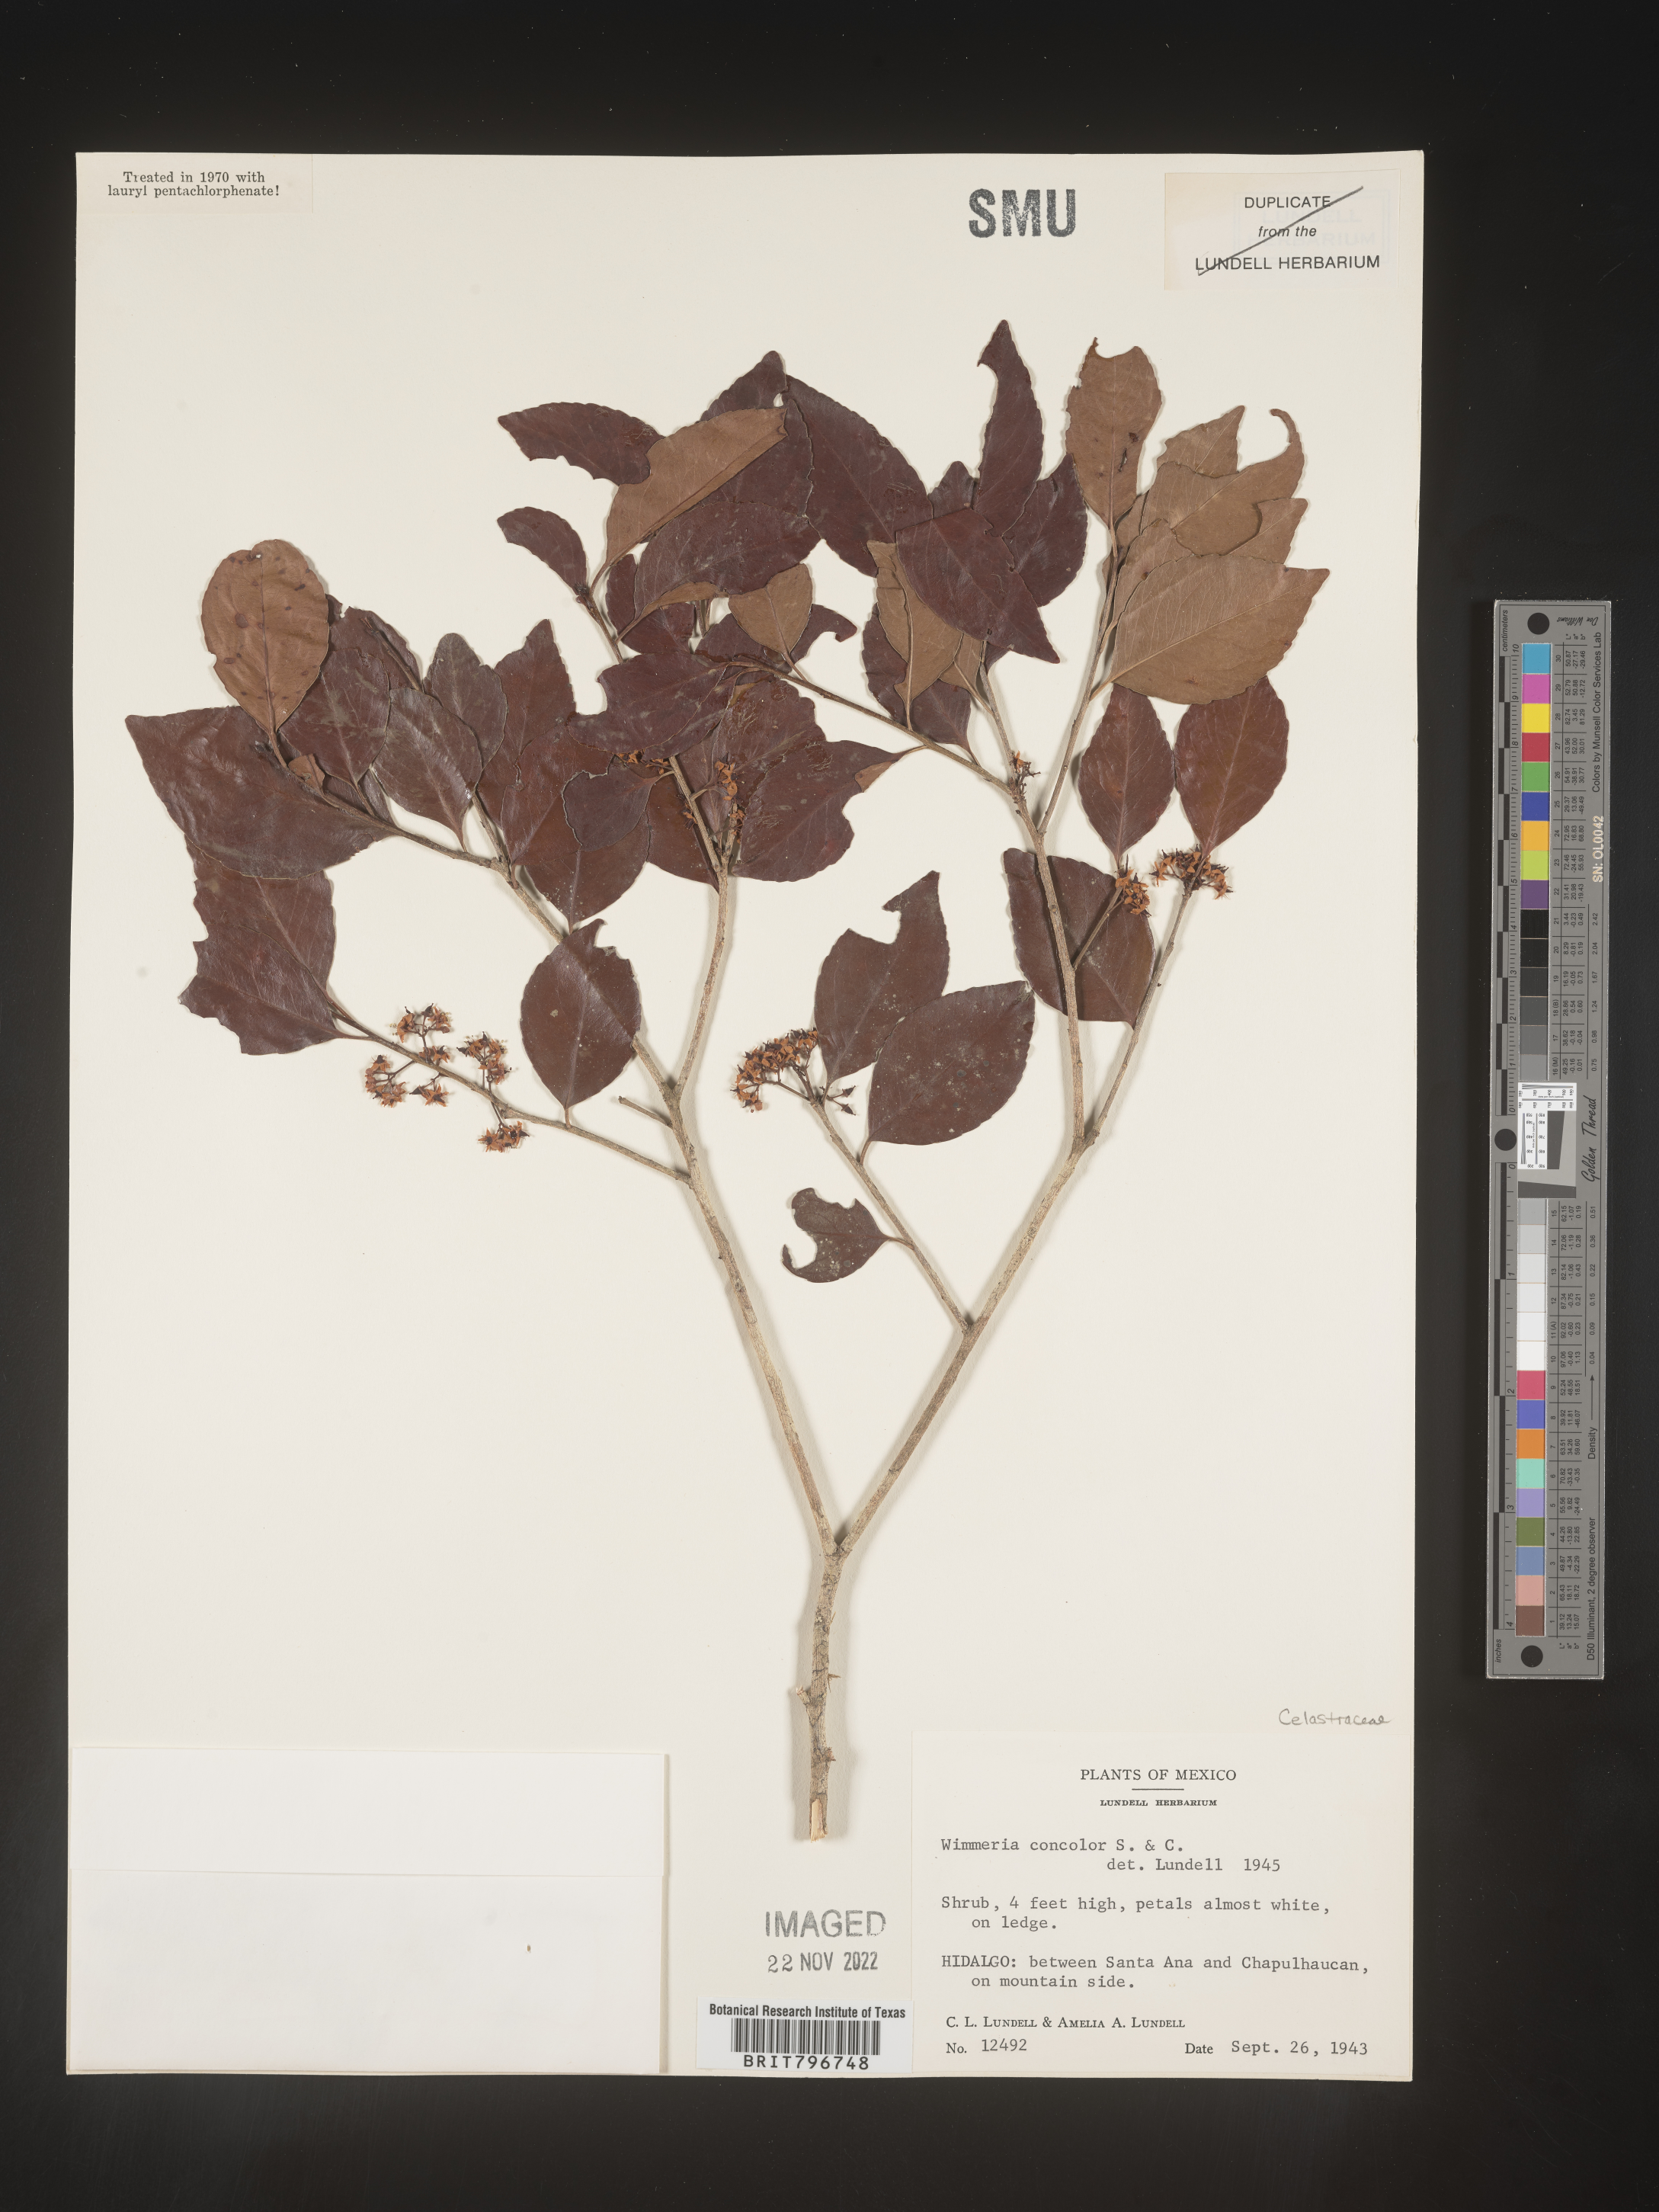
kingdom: Plantae
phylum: Tracheophyta
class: Magnoliopsida
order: Celastrales
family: Celastraceae
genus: Wimmeria
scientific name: Wimmeria
